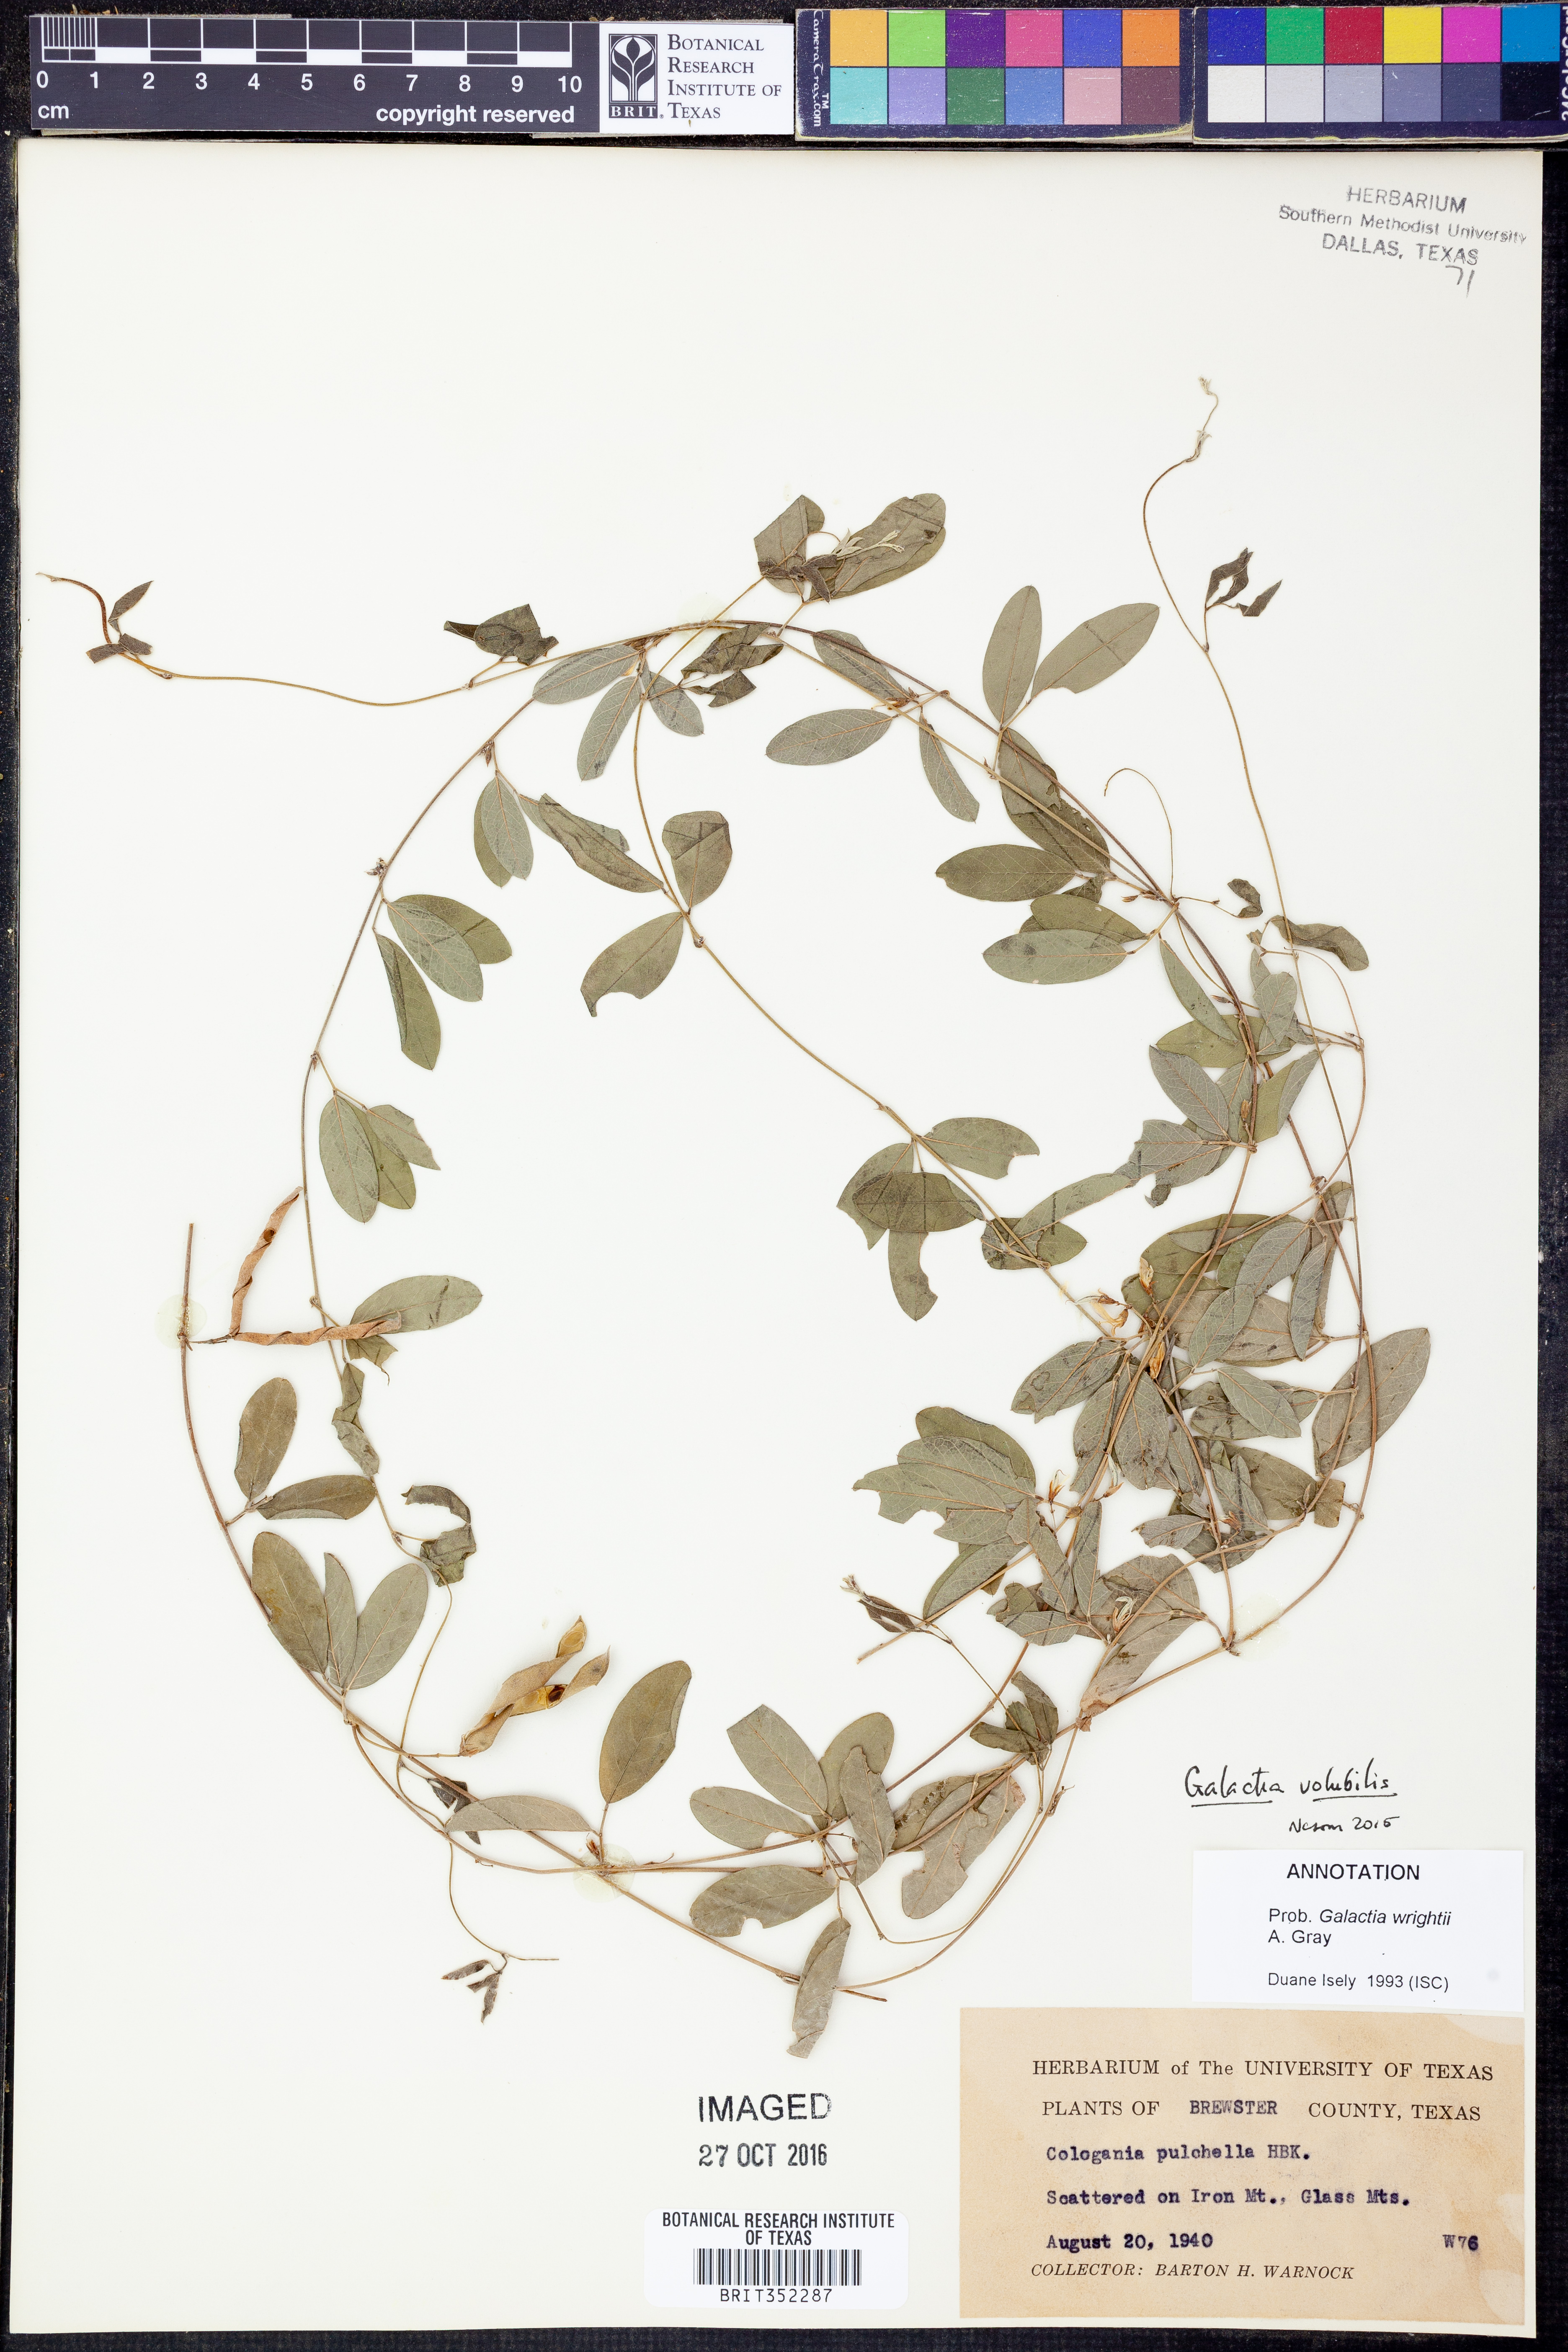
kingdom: Plantae
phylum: Tracheophyta
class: Magnoliopsida
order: Fabales
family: Fabaceae
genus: Galactia
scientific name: Galactia volubilis
